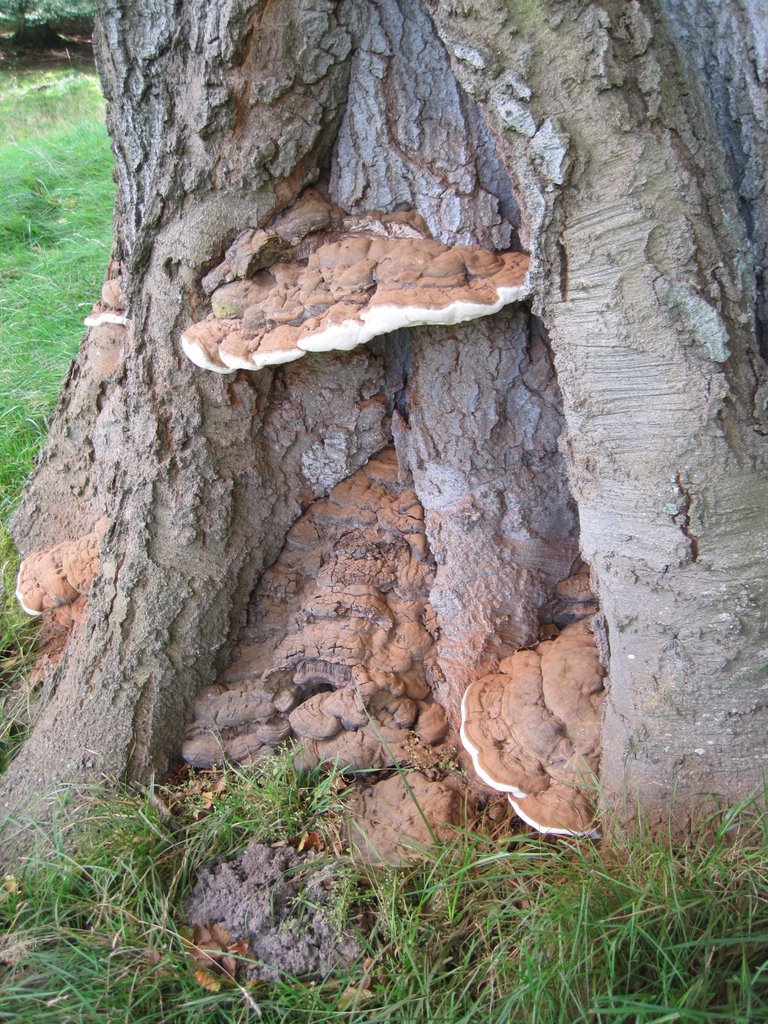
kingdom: Fungi
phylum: Basidiomycota
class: Agaricomycetes
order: Polyporales
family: Polyporaceae
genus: Ganoderma
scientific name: Ganoderma pfeifferi
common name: kobberrød lakporesvamp
